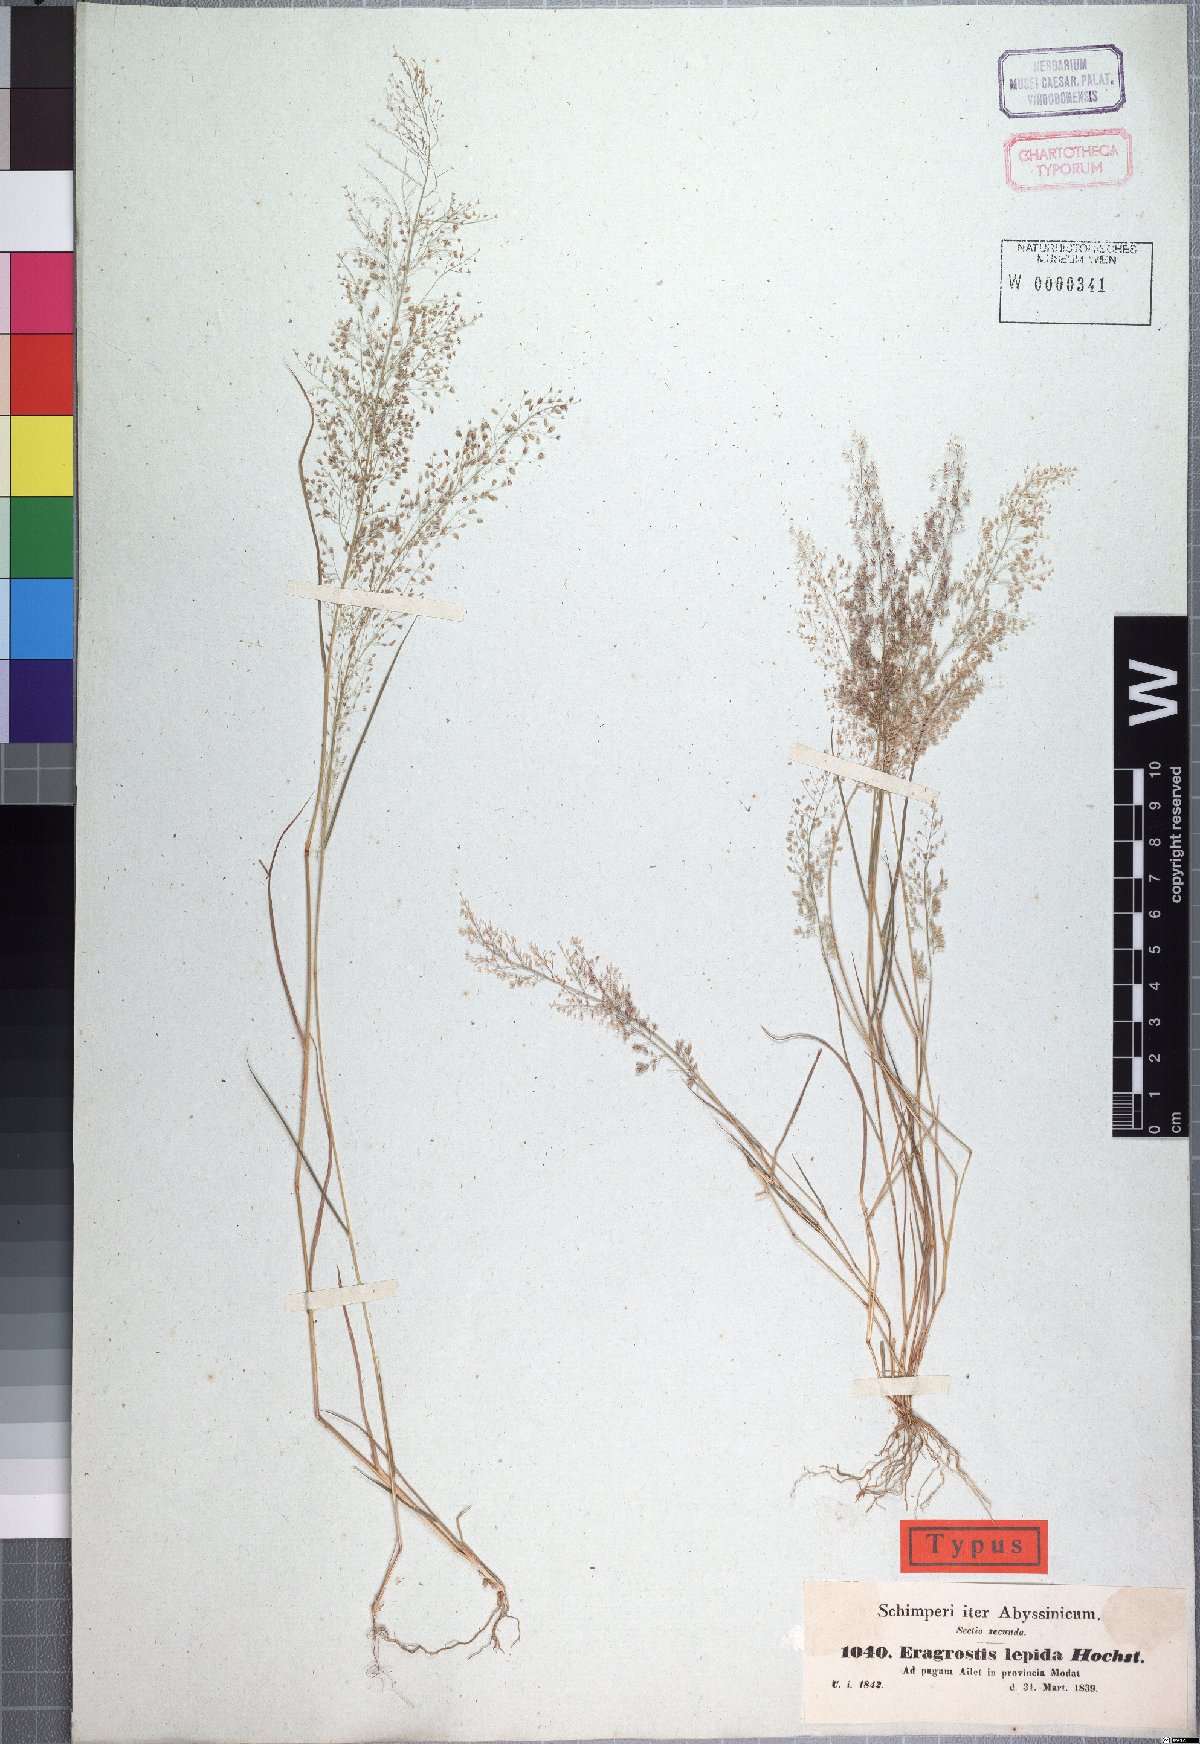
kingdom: Plantae
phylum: Tracheophyta
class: Liliopsida
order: Poales
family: Poaceae
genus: Eragrostis
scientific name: Eragrostis lepida
